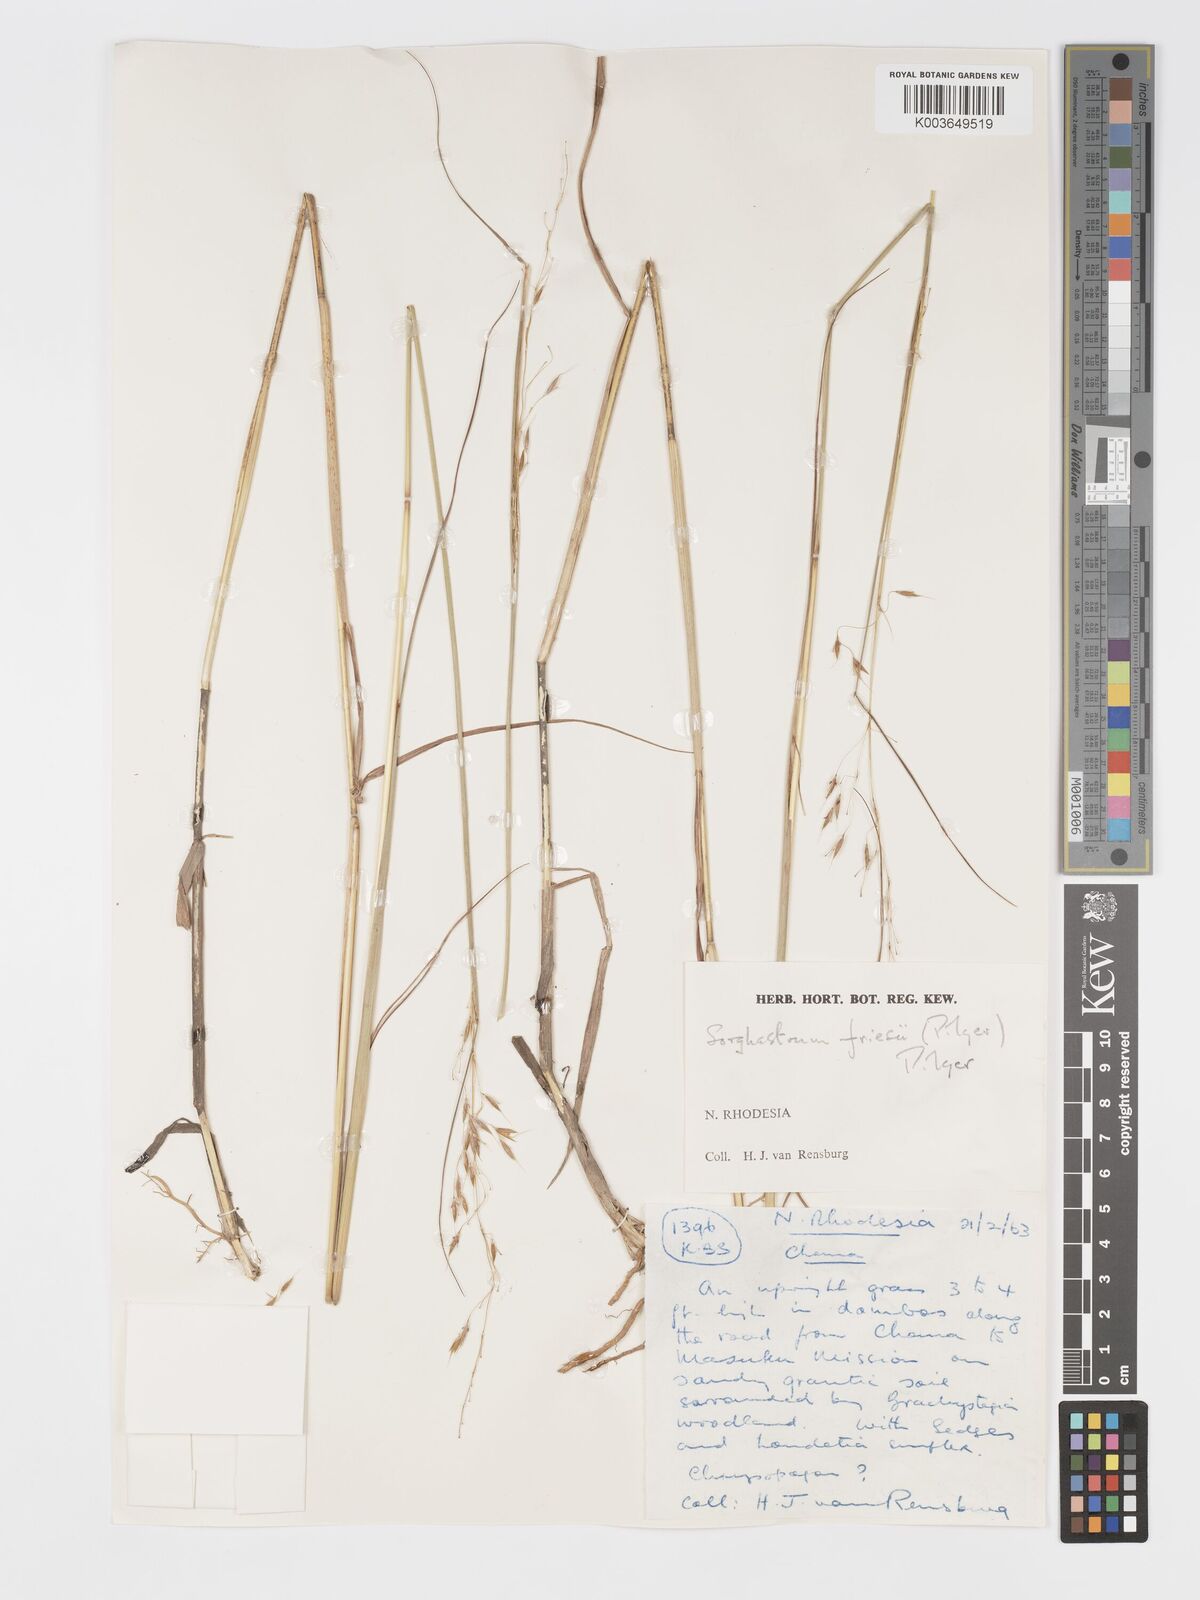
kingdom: Plantae
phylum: Tracheophyta
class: Liliopsida
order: Poales
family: Poaceae
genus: Sorghastrum
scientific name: Sorghastrum nudipes
